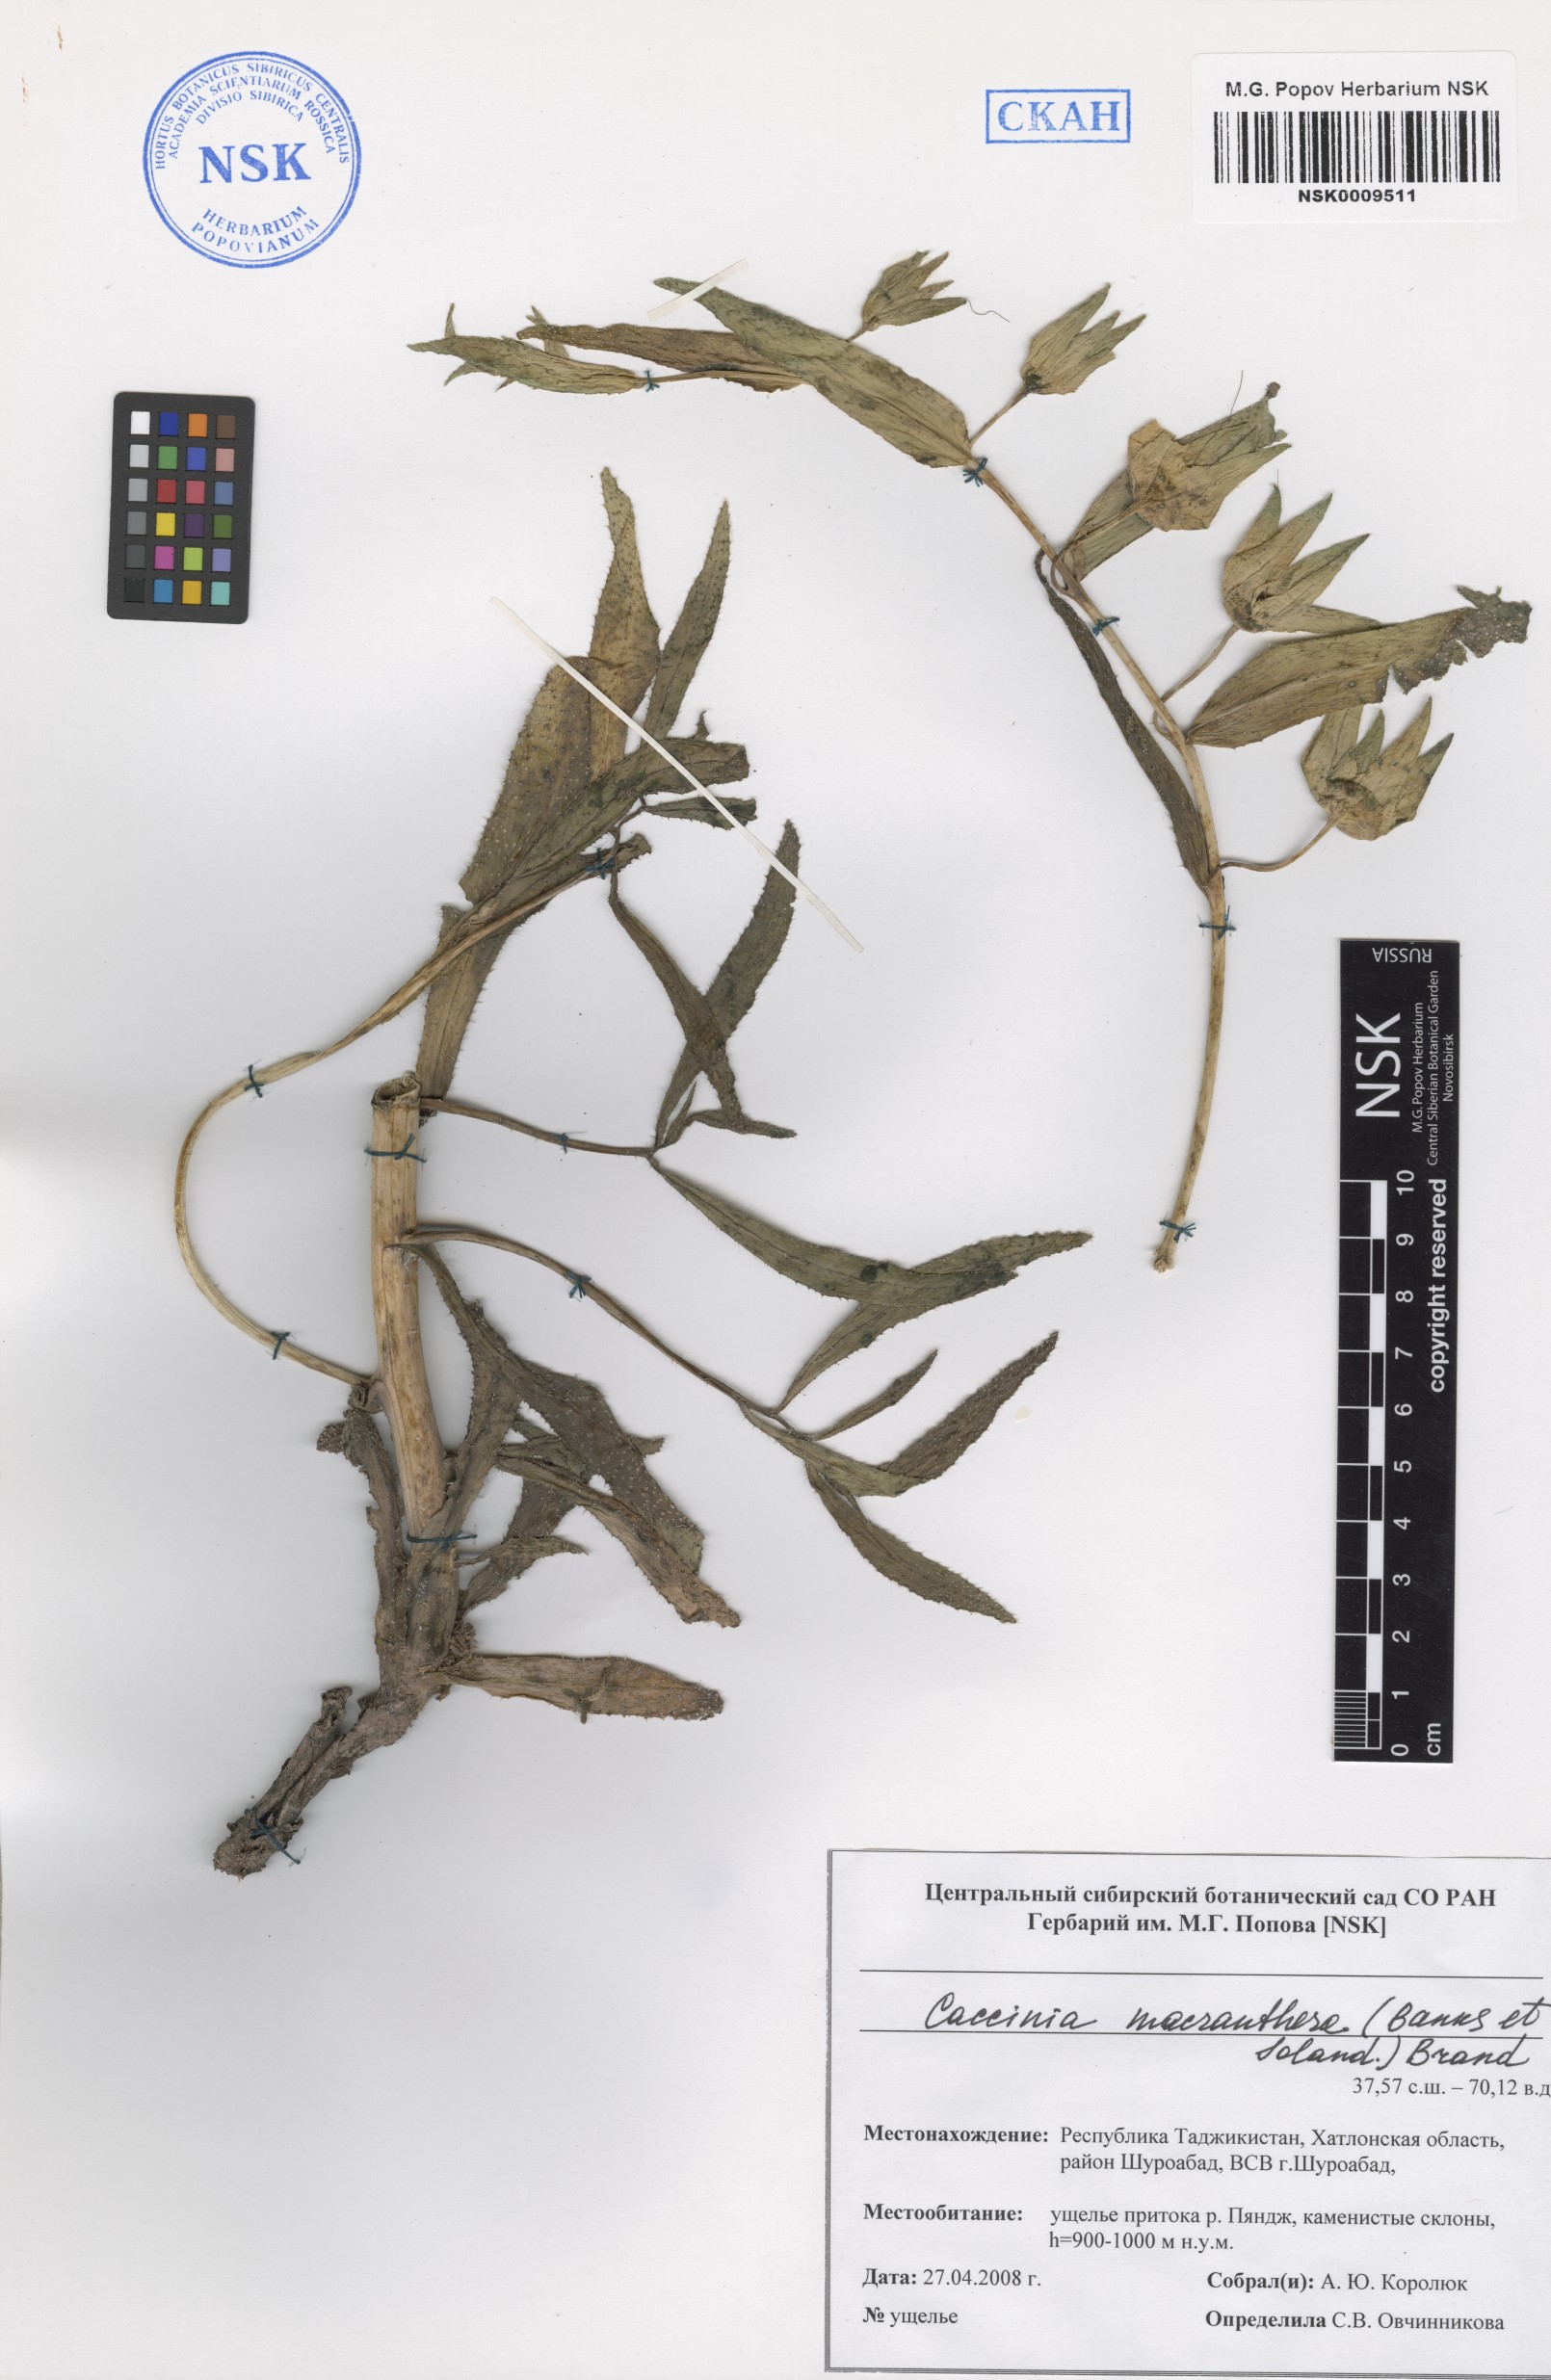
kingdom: Plantae
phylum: Tracheophyta
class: Magnoliopsida
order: Boraginales
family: Boraginaceae
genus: Caccinia
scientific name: Caccinia macranthera
